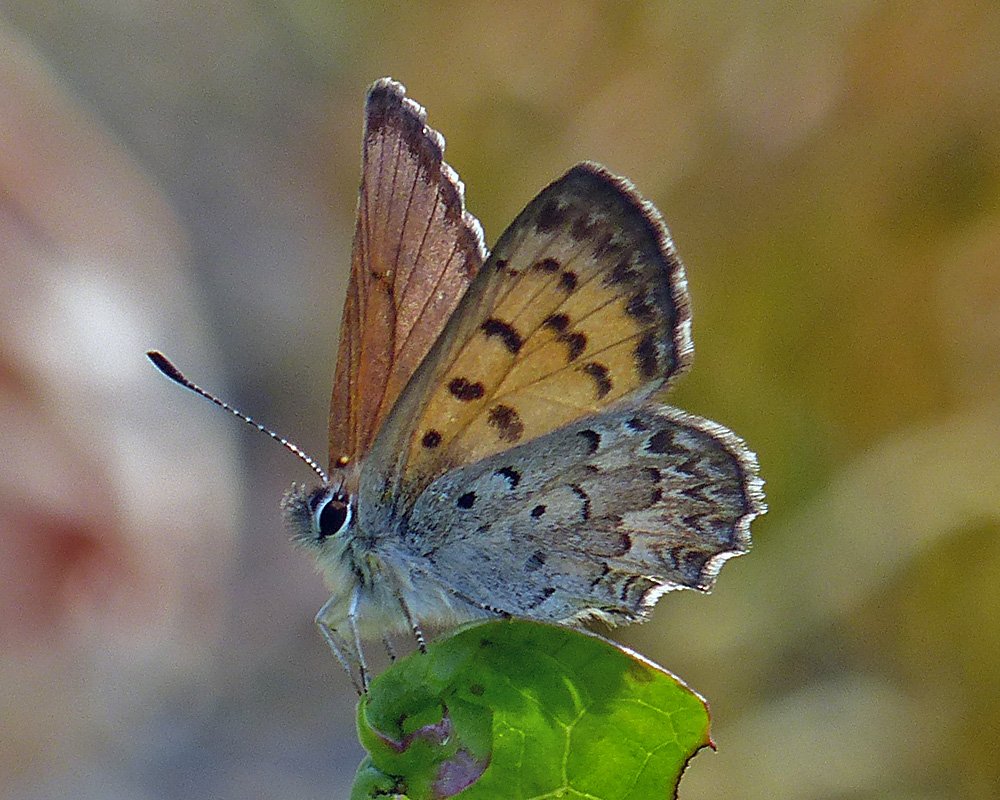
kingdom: Animalia
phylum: Arthropoda
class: Insecta
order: Lepidoptera
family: Lycaenidae
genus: Lycaena
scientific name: Lycaena mariposa
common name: Mariposa Copper
